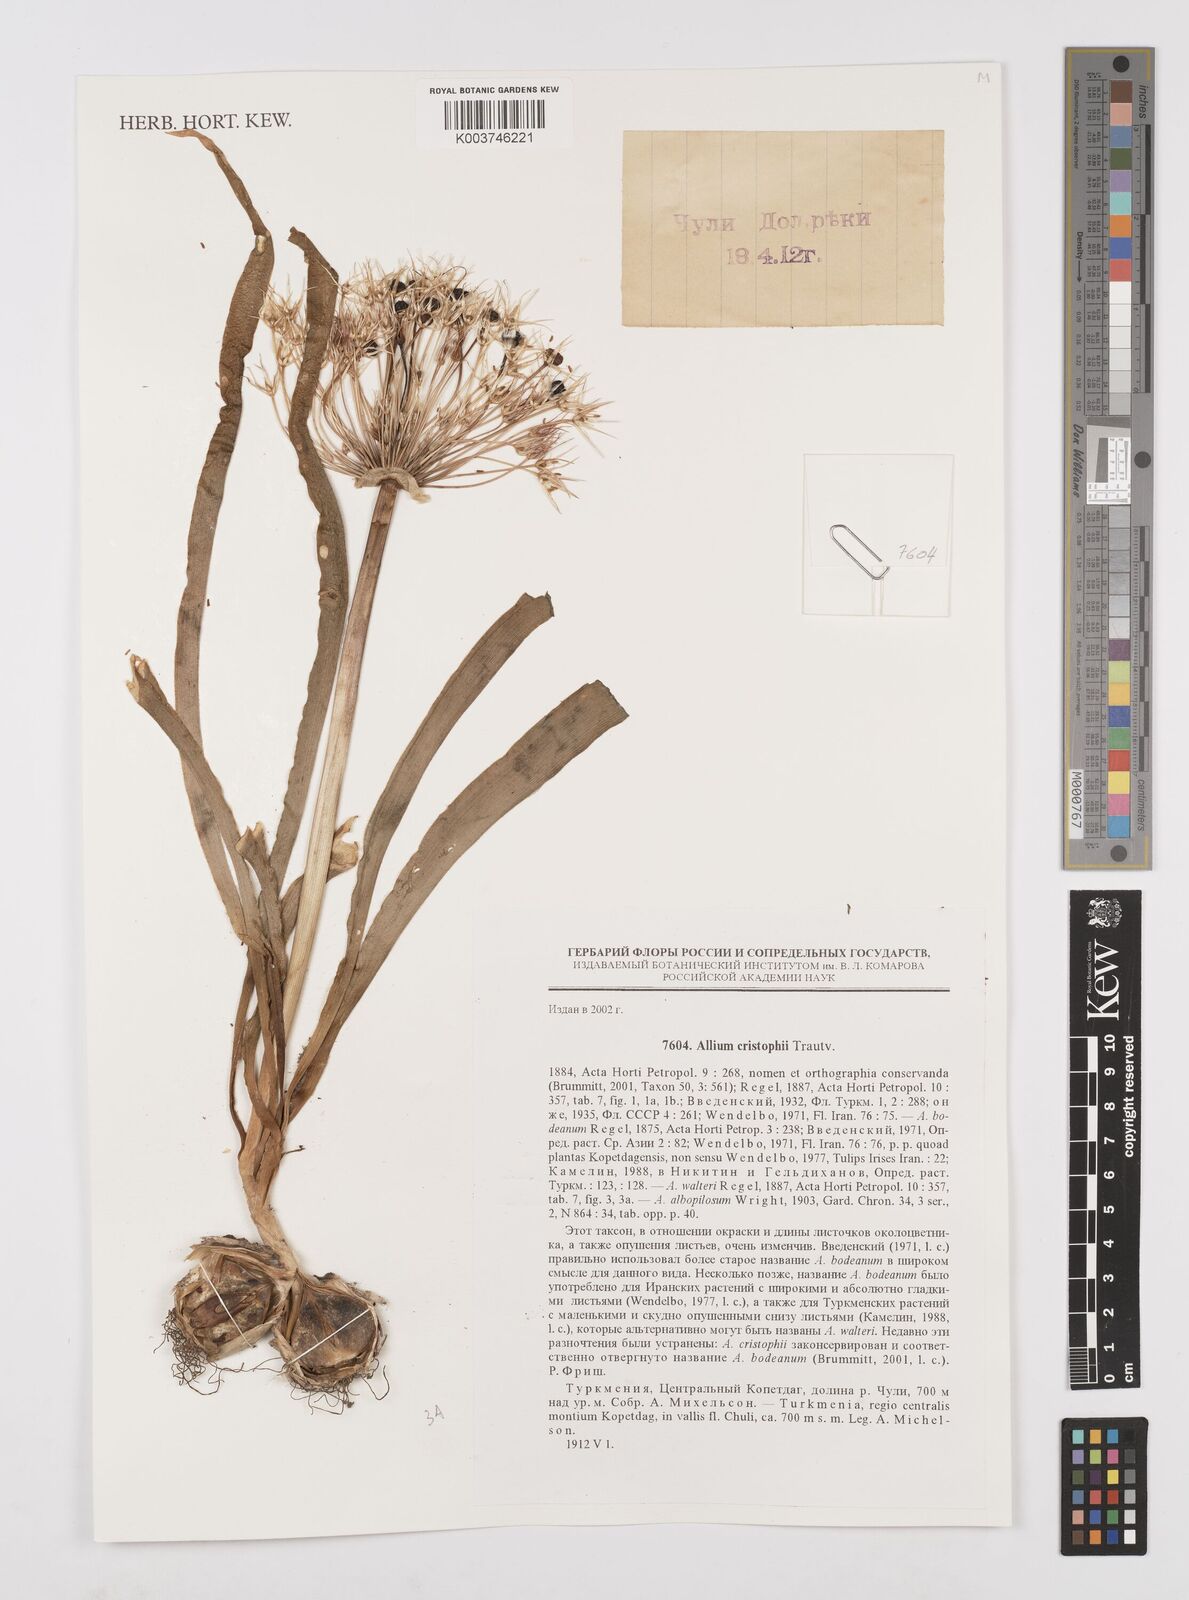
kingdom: Plantae
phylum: Tracheophyta
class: Liliopsida
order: Asparagales
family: Amaryllidaceae
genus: Allium
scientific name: Allium cristophii
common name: Persian onion
